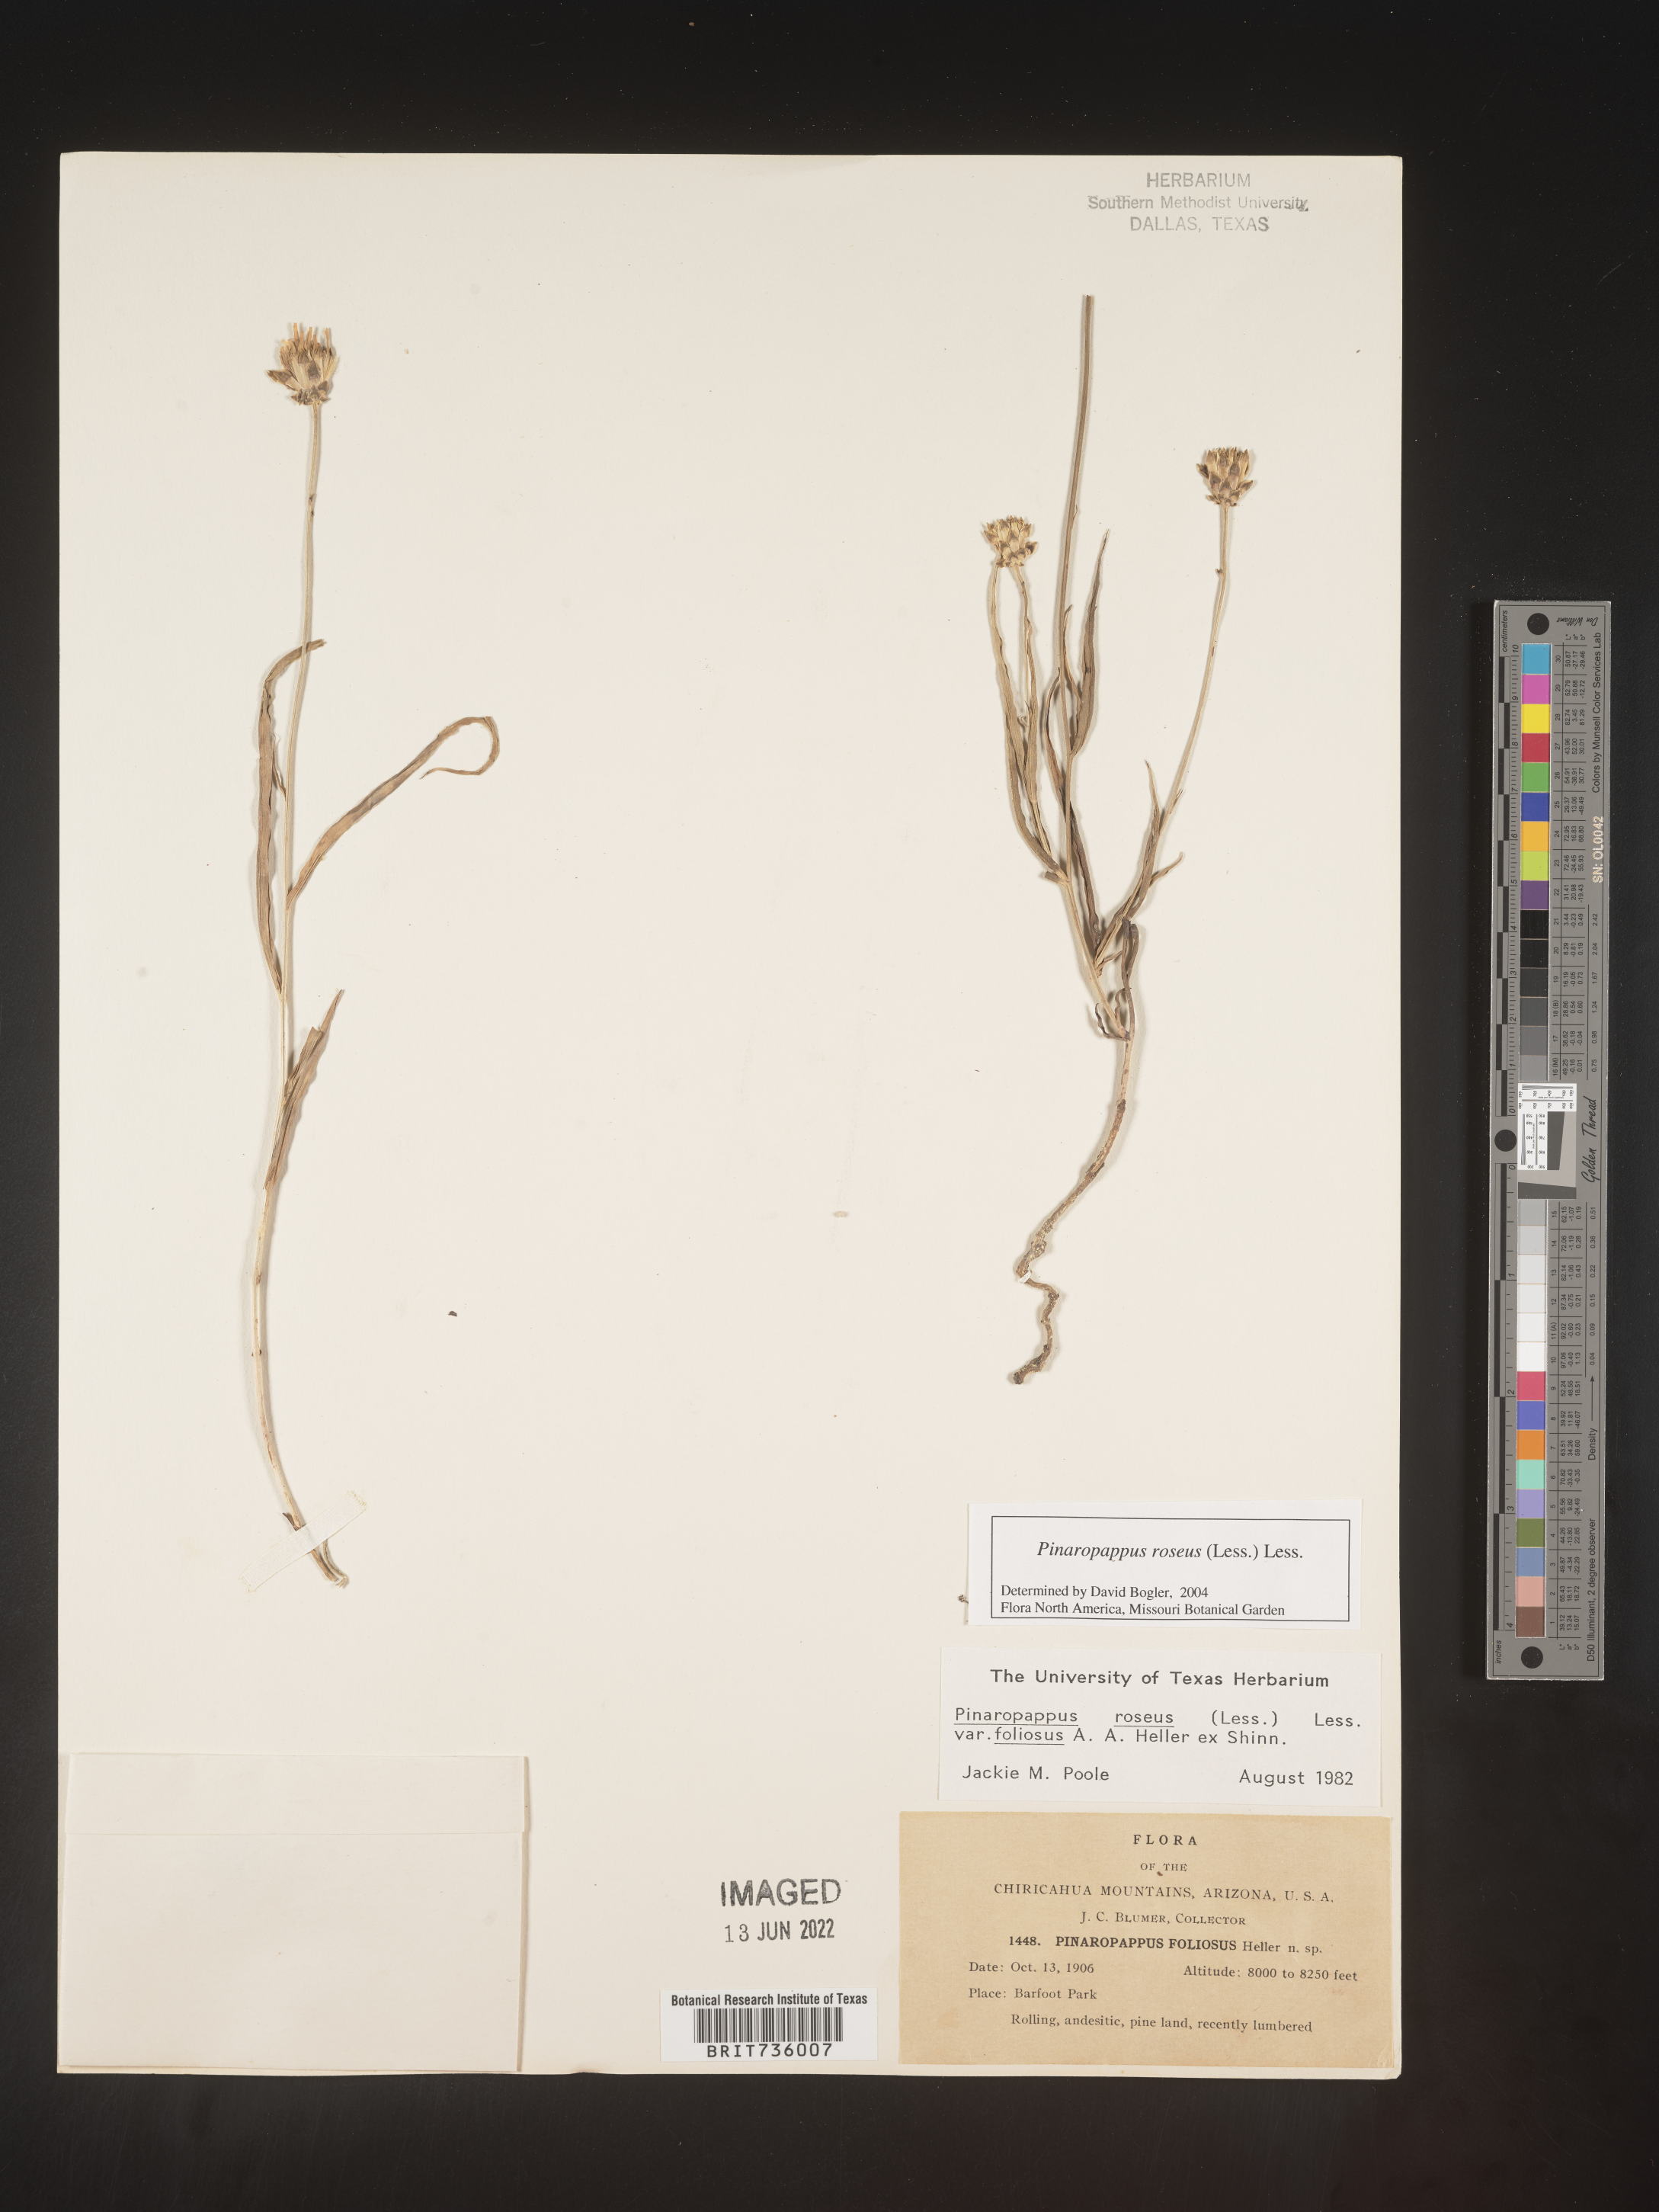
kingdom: Plantae
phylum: Tracheophyta
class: Magnoliopsida
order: Asterales
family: Asteraceae
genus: Pinaropappus
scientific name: Pinaropappus
